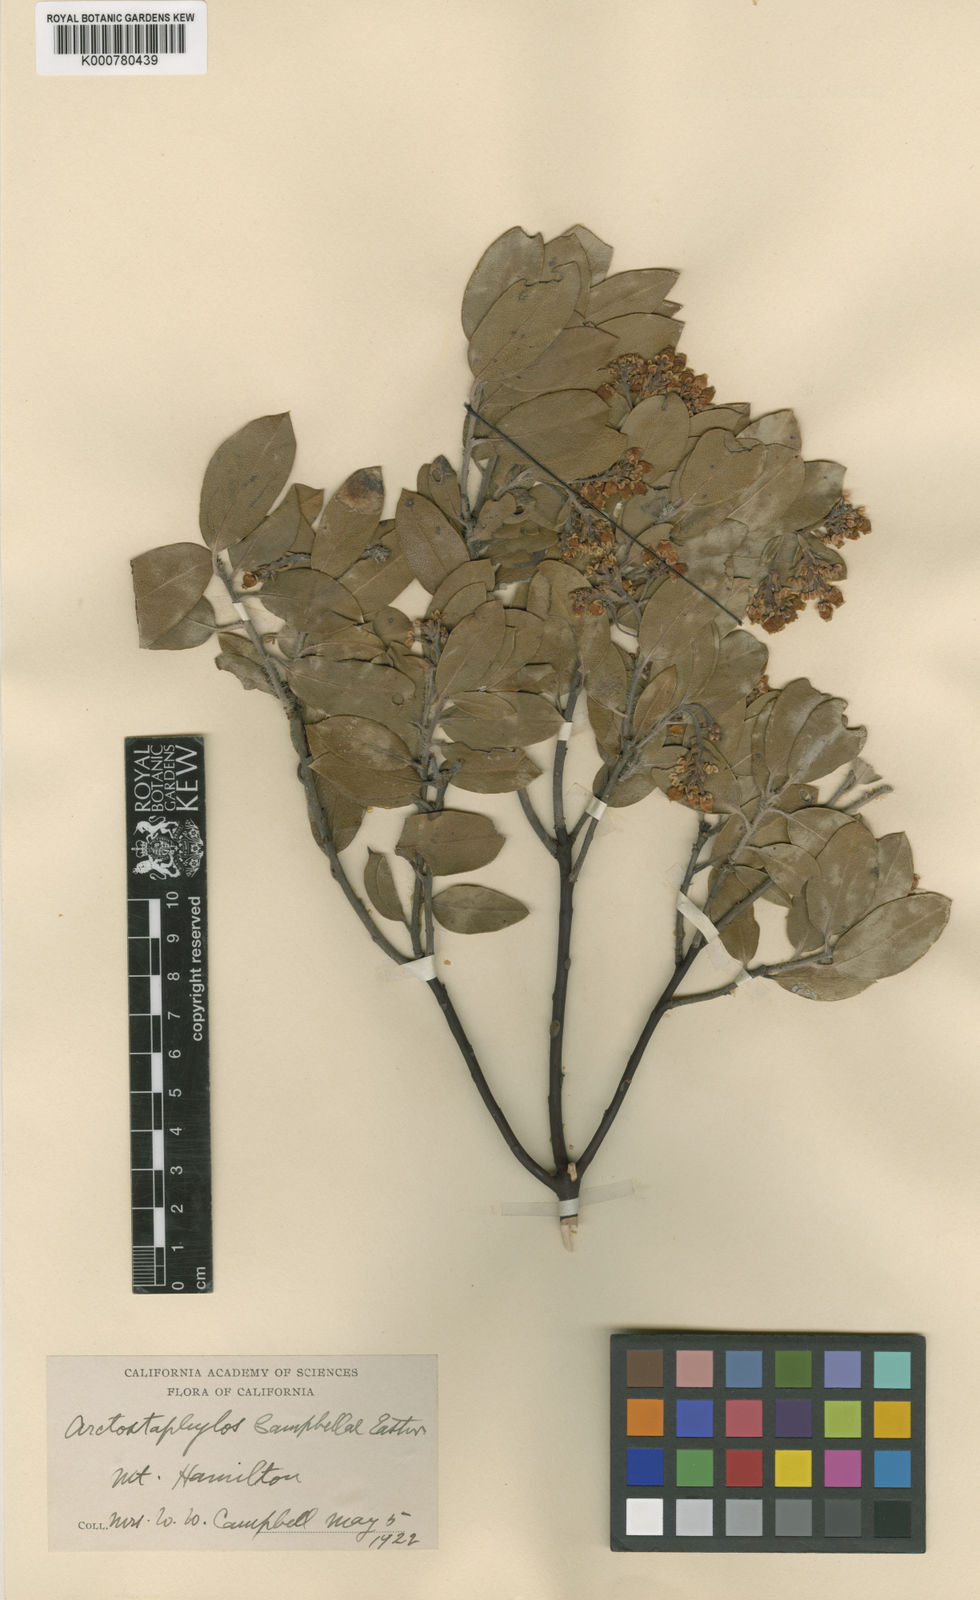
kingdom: Plantae
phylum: Tracheophyta
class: Magnoliopsida
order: Ericales
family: Ericaceae
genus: Arctostaphylos
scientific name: Arctostaphylos crustacea
